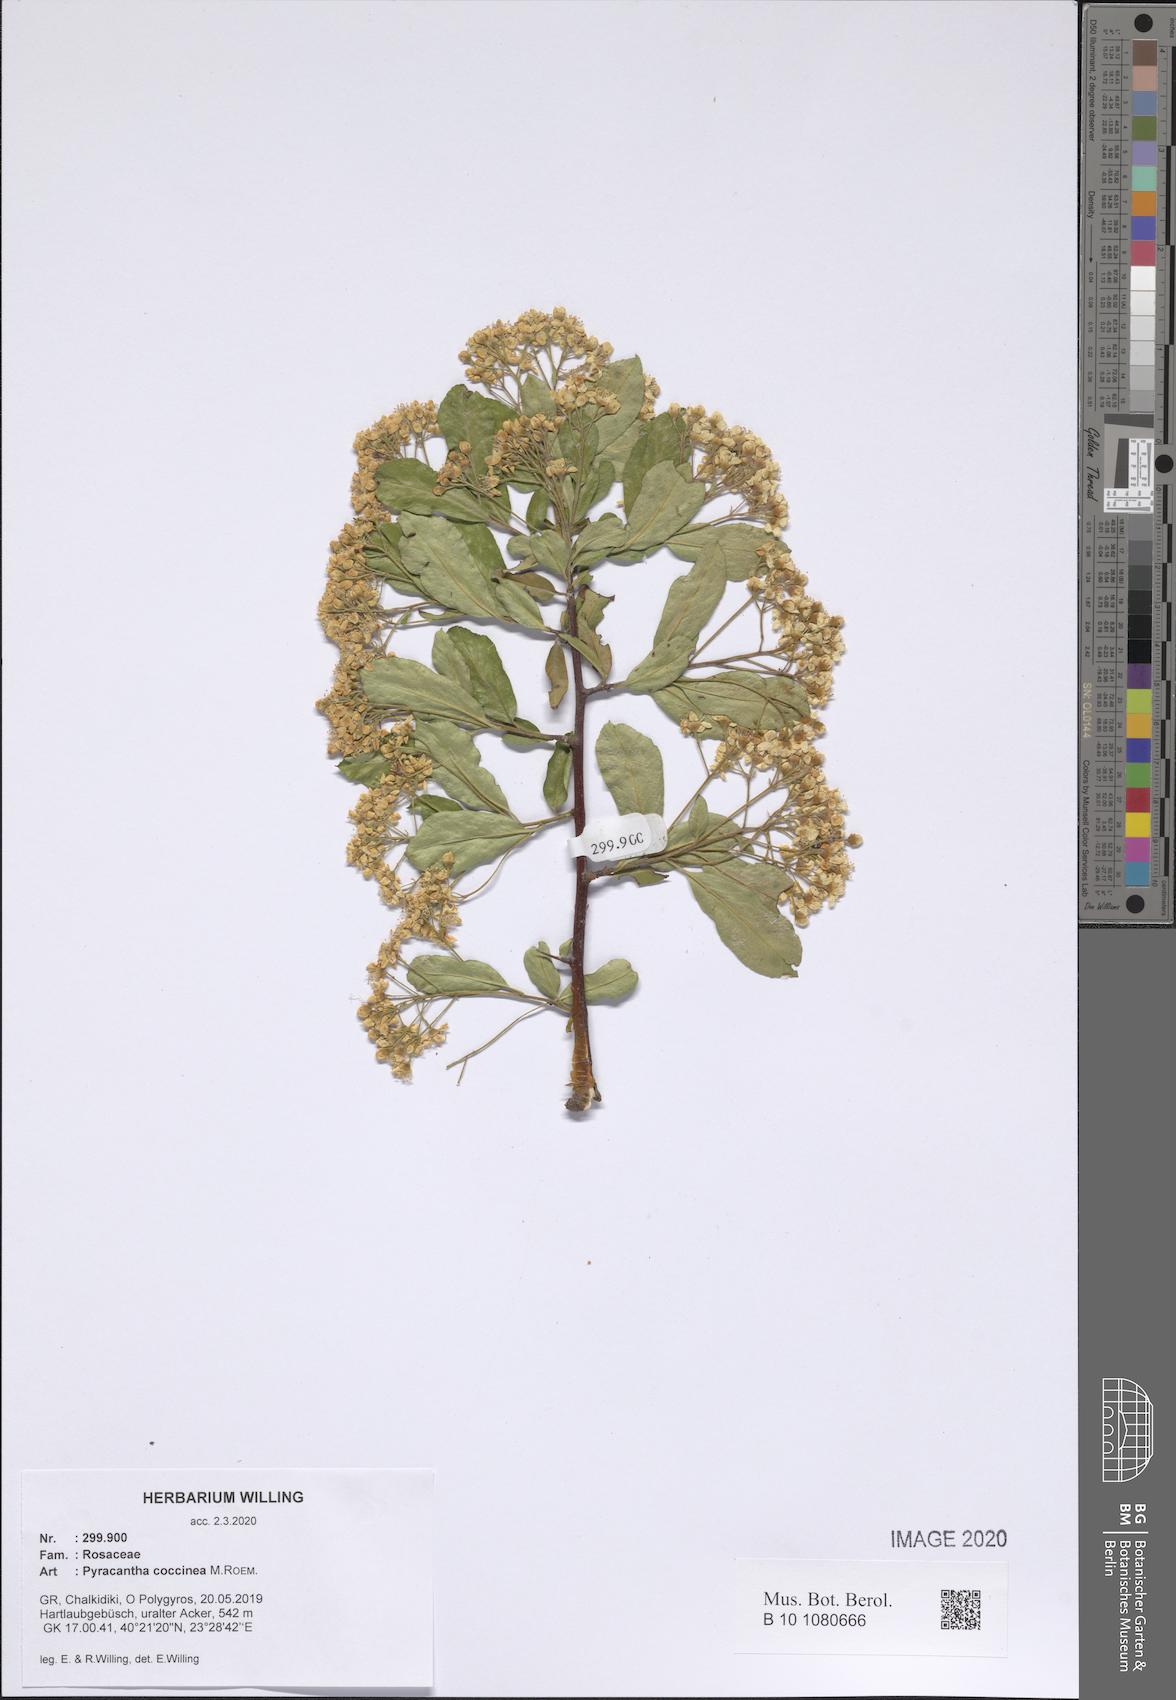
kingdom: Plantae
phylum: Tracheophyta
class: Magnoliopsida
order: Rosales
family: Rosaceae
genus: Pyracantha
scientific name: Pyracantha coccinea
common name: Firethorn
